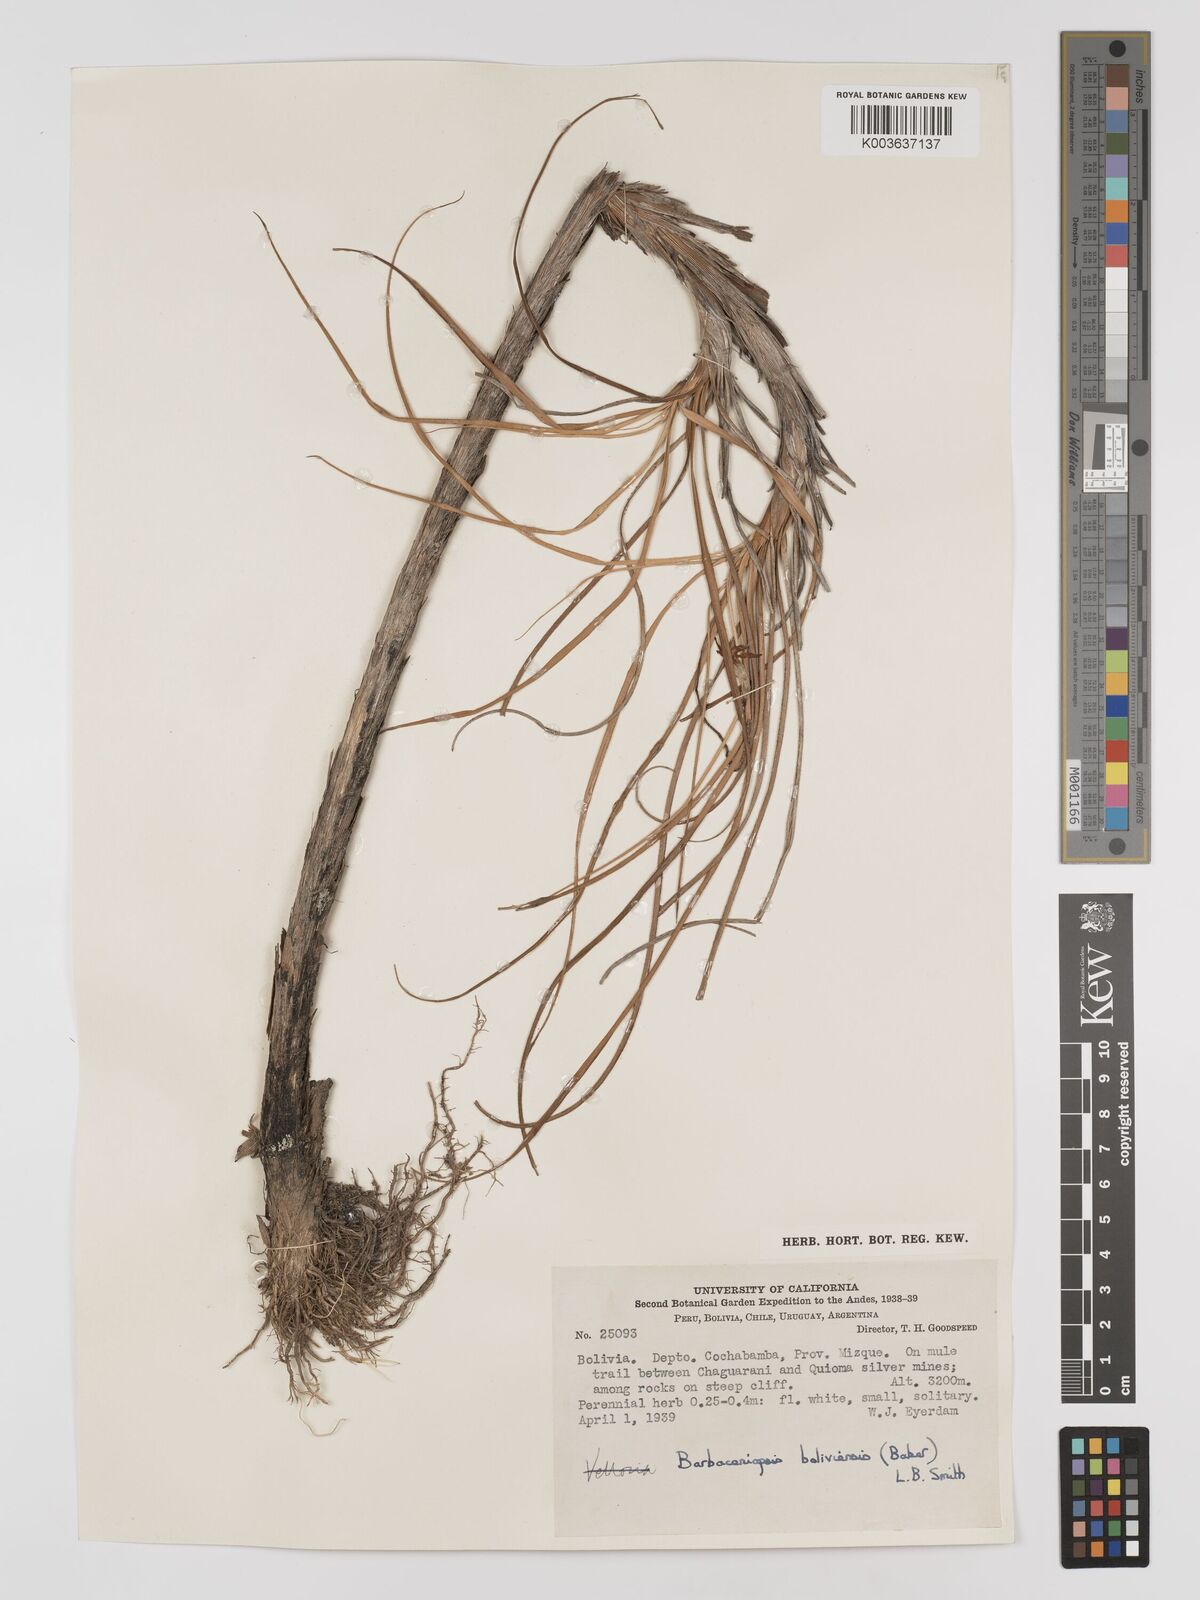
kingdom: Plantae
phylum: Tracheophyta
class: Liliopsida
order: Pandanales
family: Velloziaceae
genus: Barbaceniopsis
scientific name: Barbaceniopsis boliviensis
